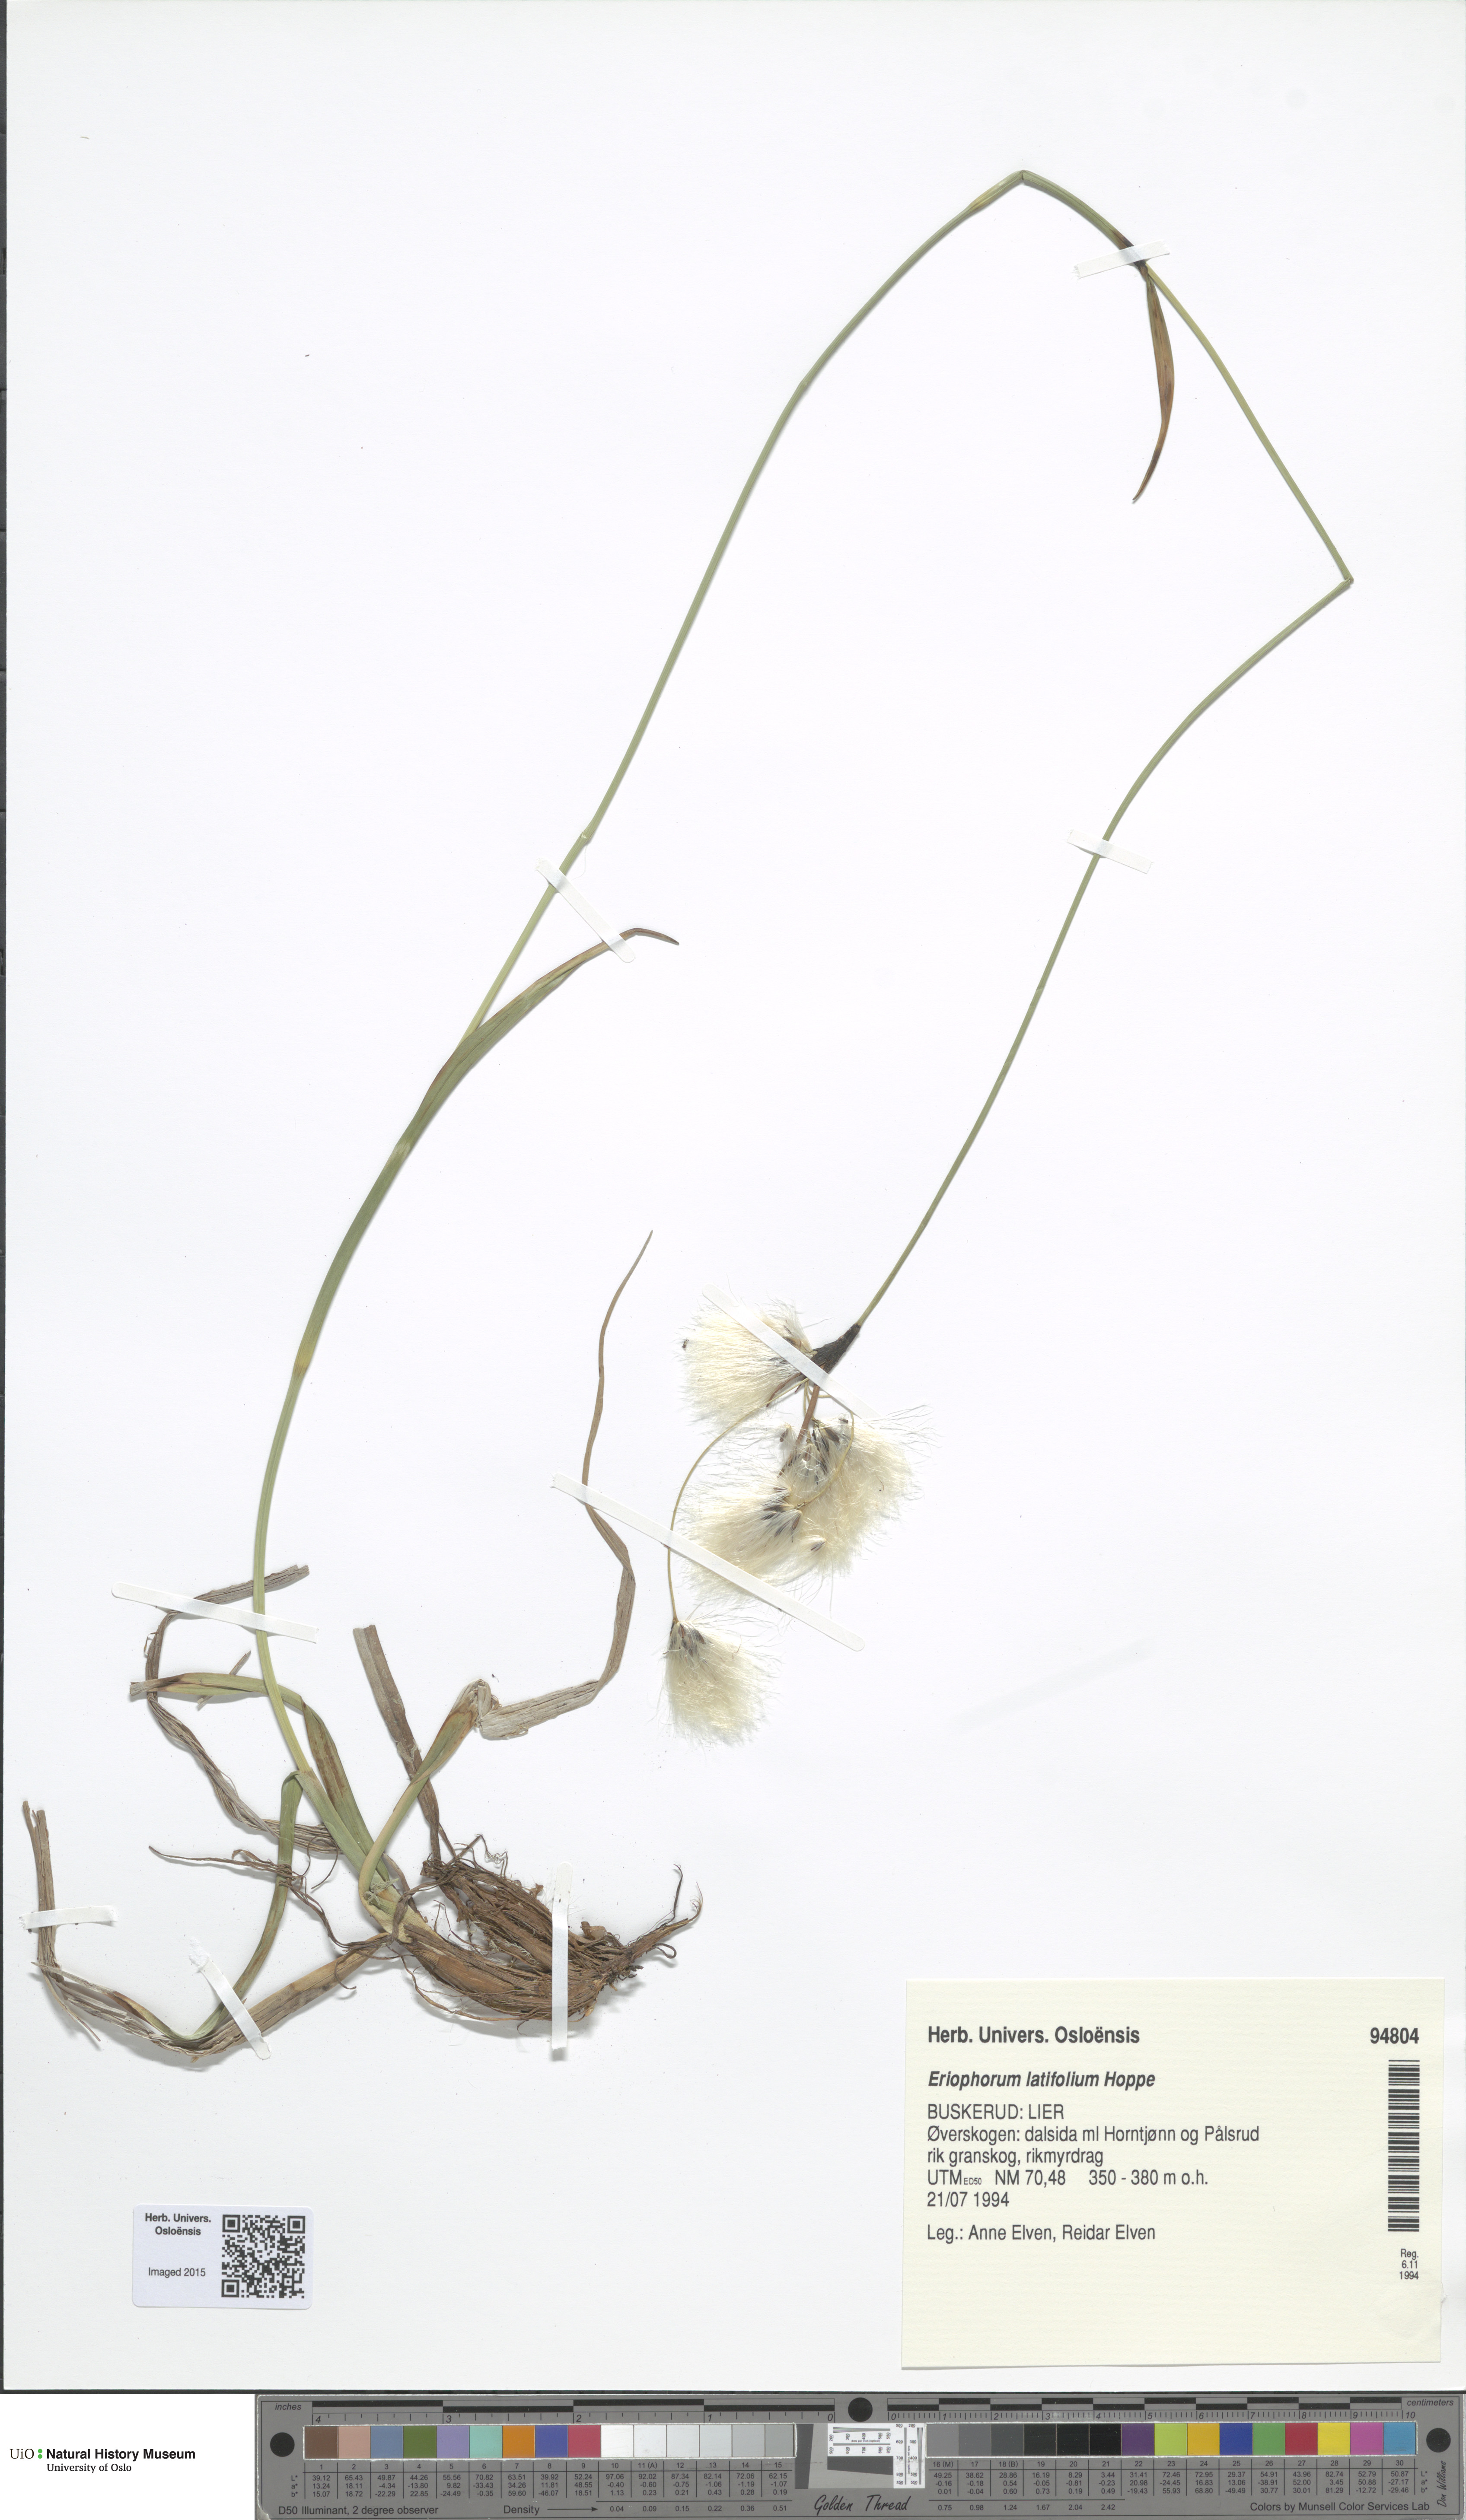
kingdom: Plantae
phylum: Tracheophyta
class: Liliopsida
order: Poales
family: Cyperaceae
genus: Eriophorum
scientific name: Eriophorum latifolium
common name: Broad-leaved cottongrass
